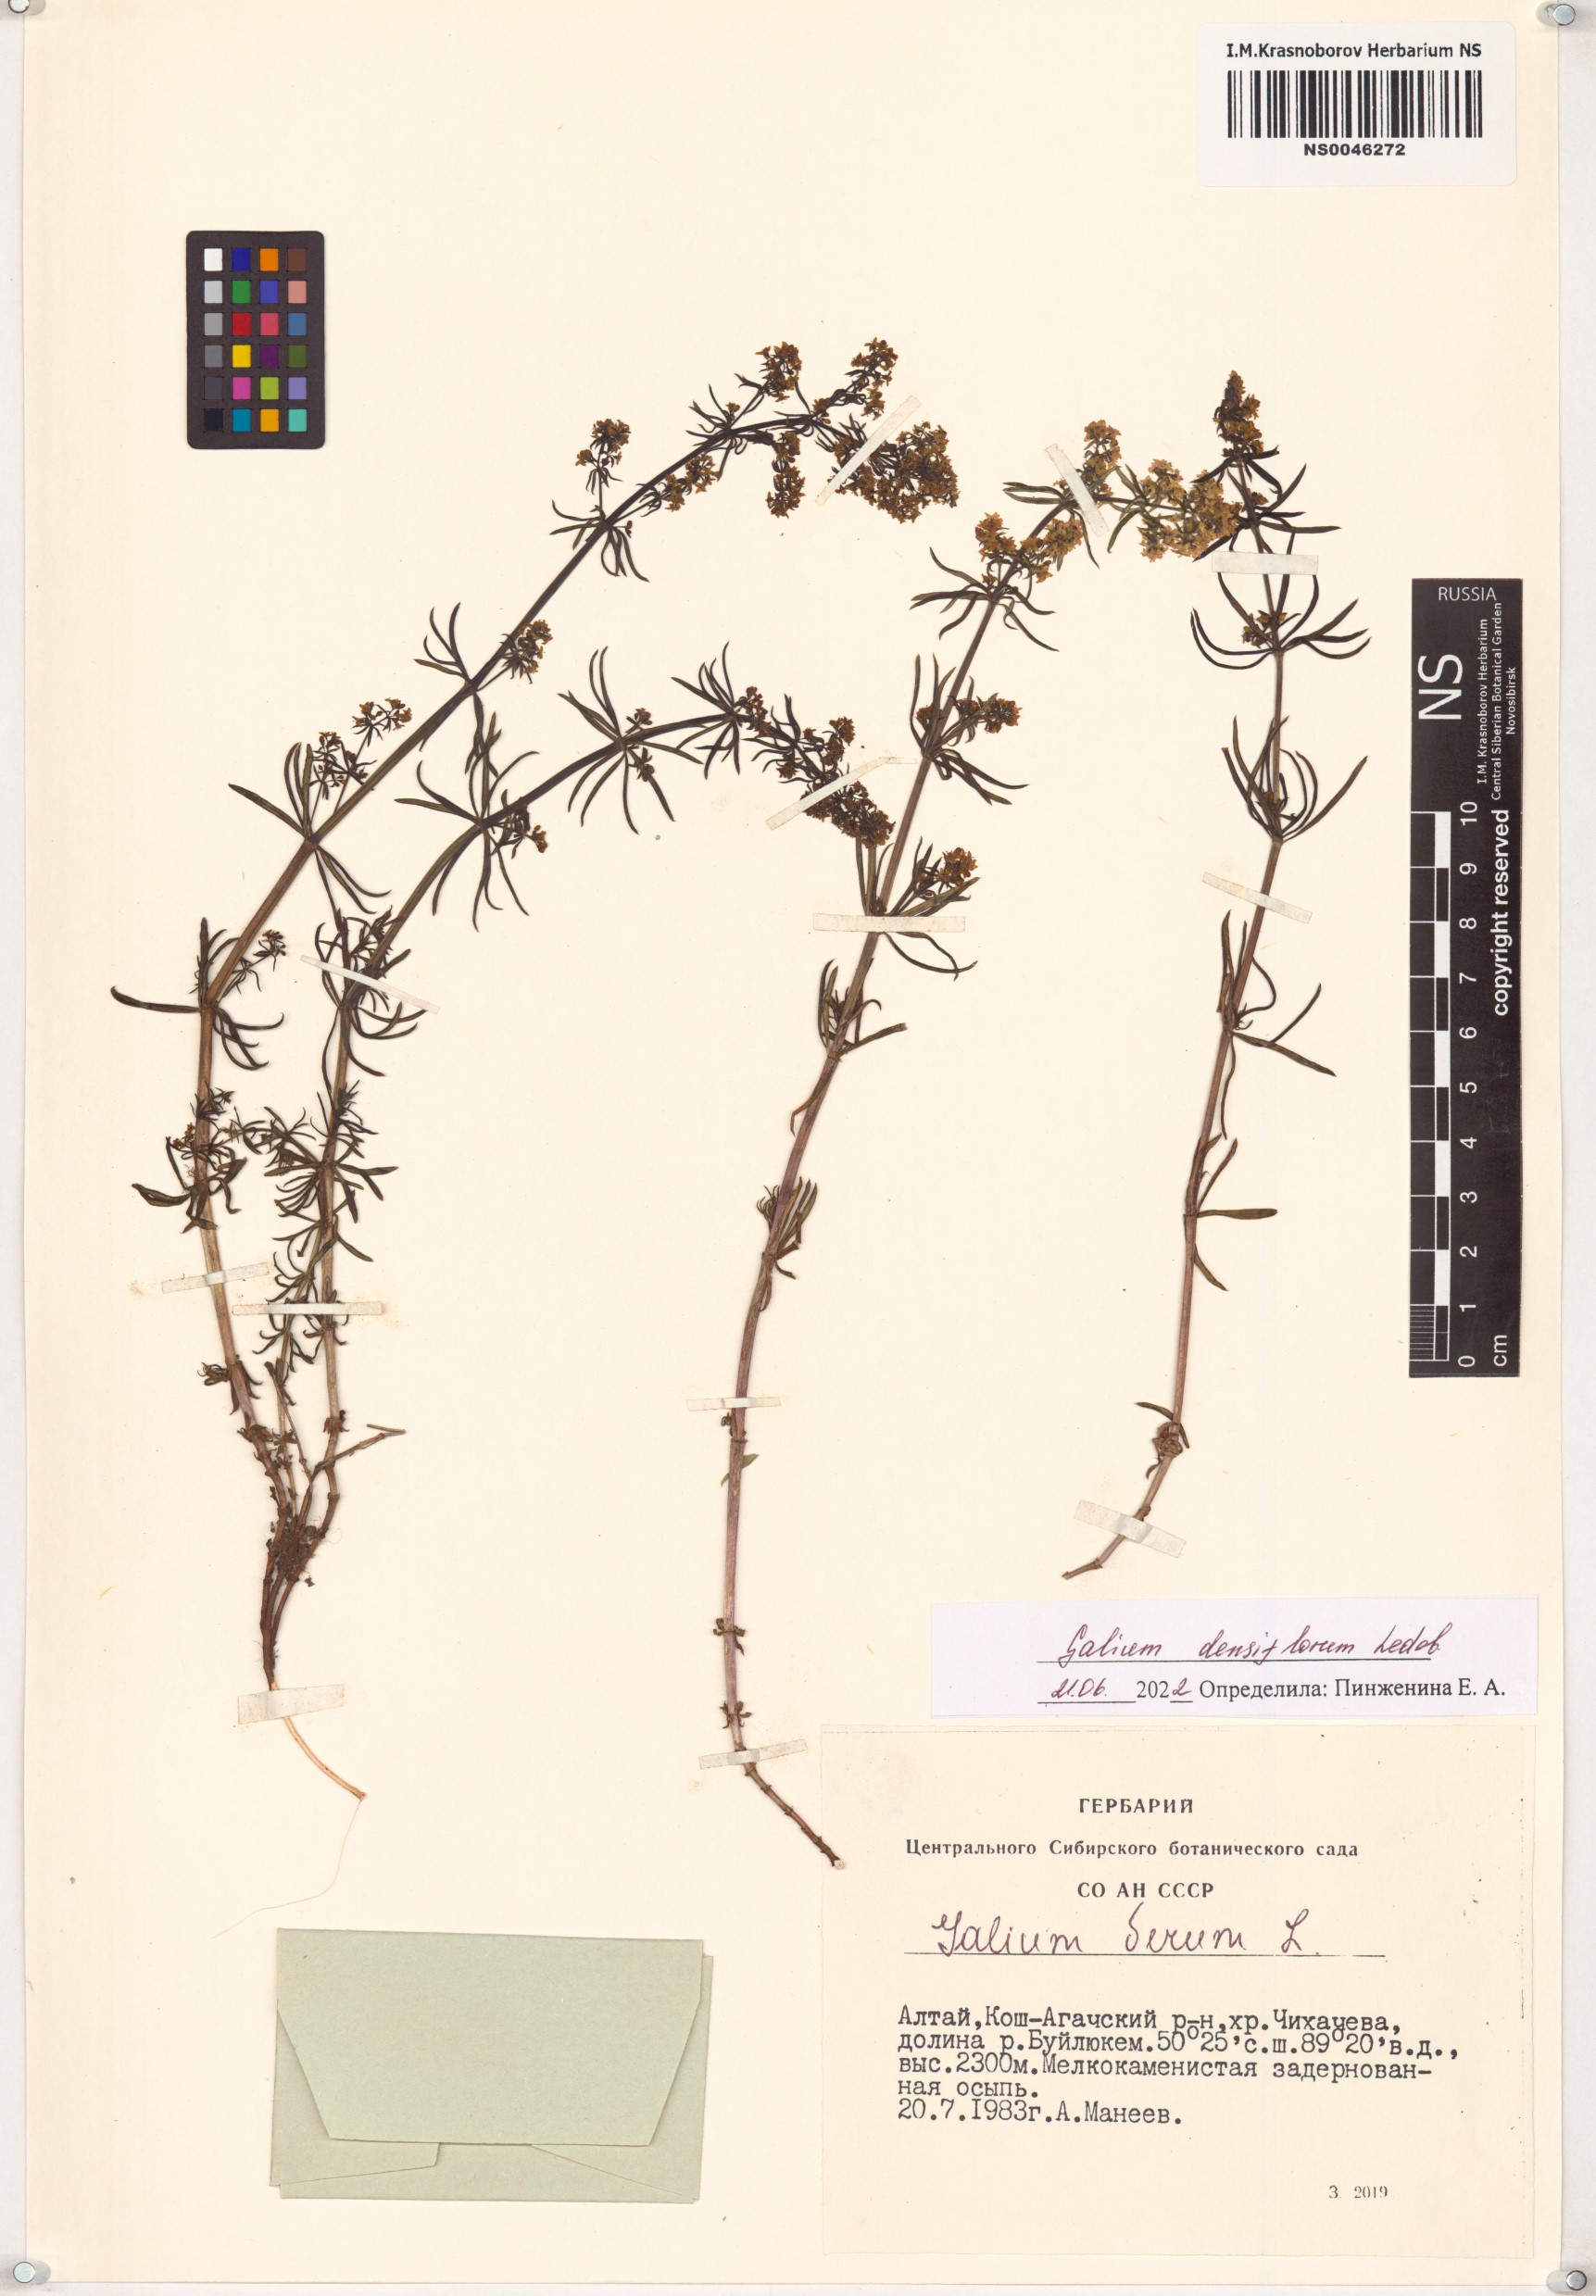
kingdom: Plantae
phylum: Tracheophyta
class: Magnoliopsida
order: Gentianales
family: Rubiaceae
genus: Galium
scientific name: Galium densiflorum
